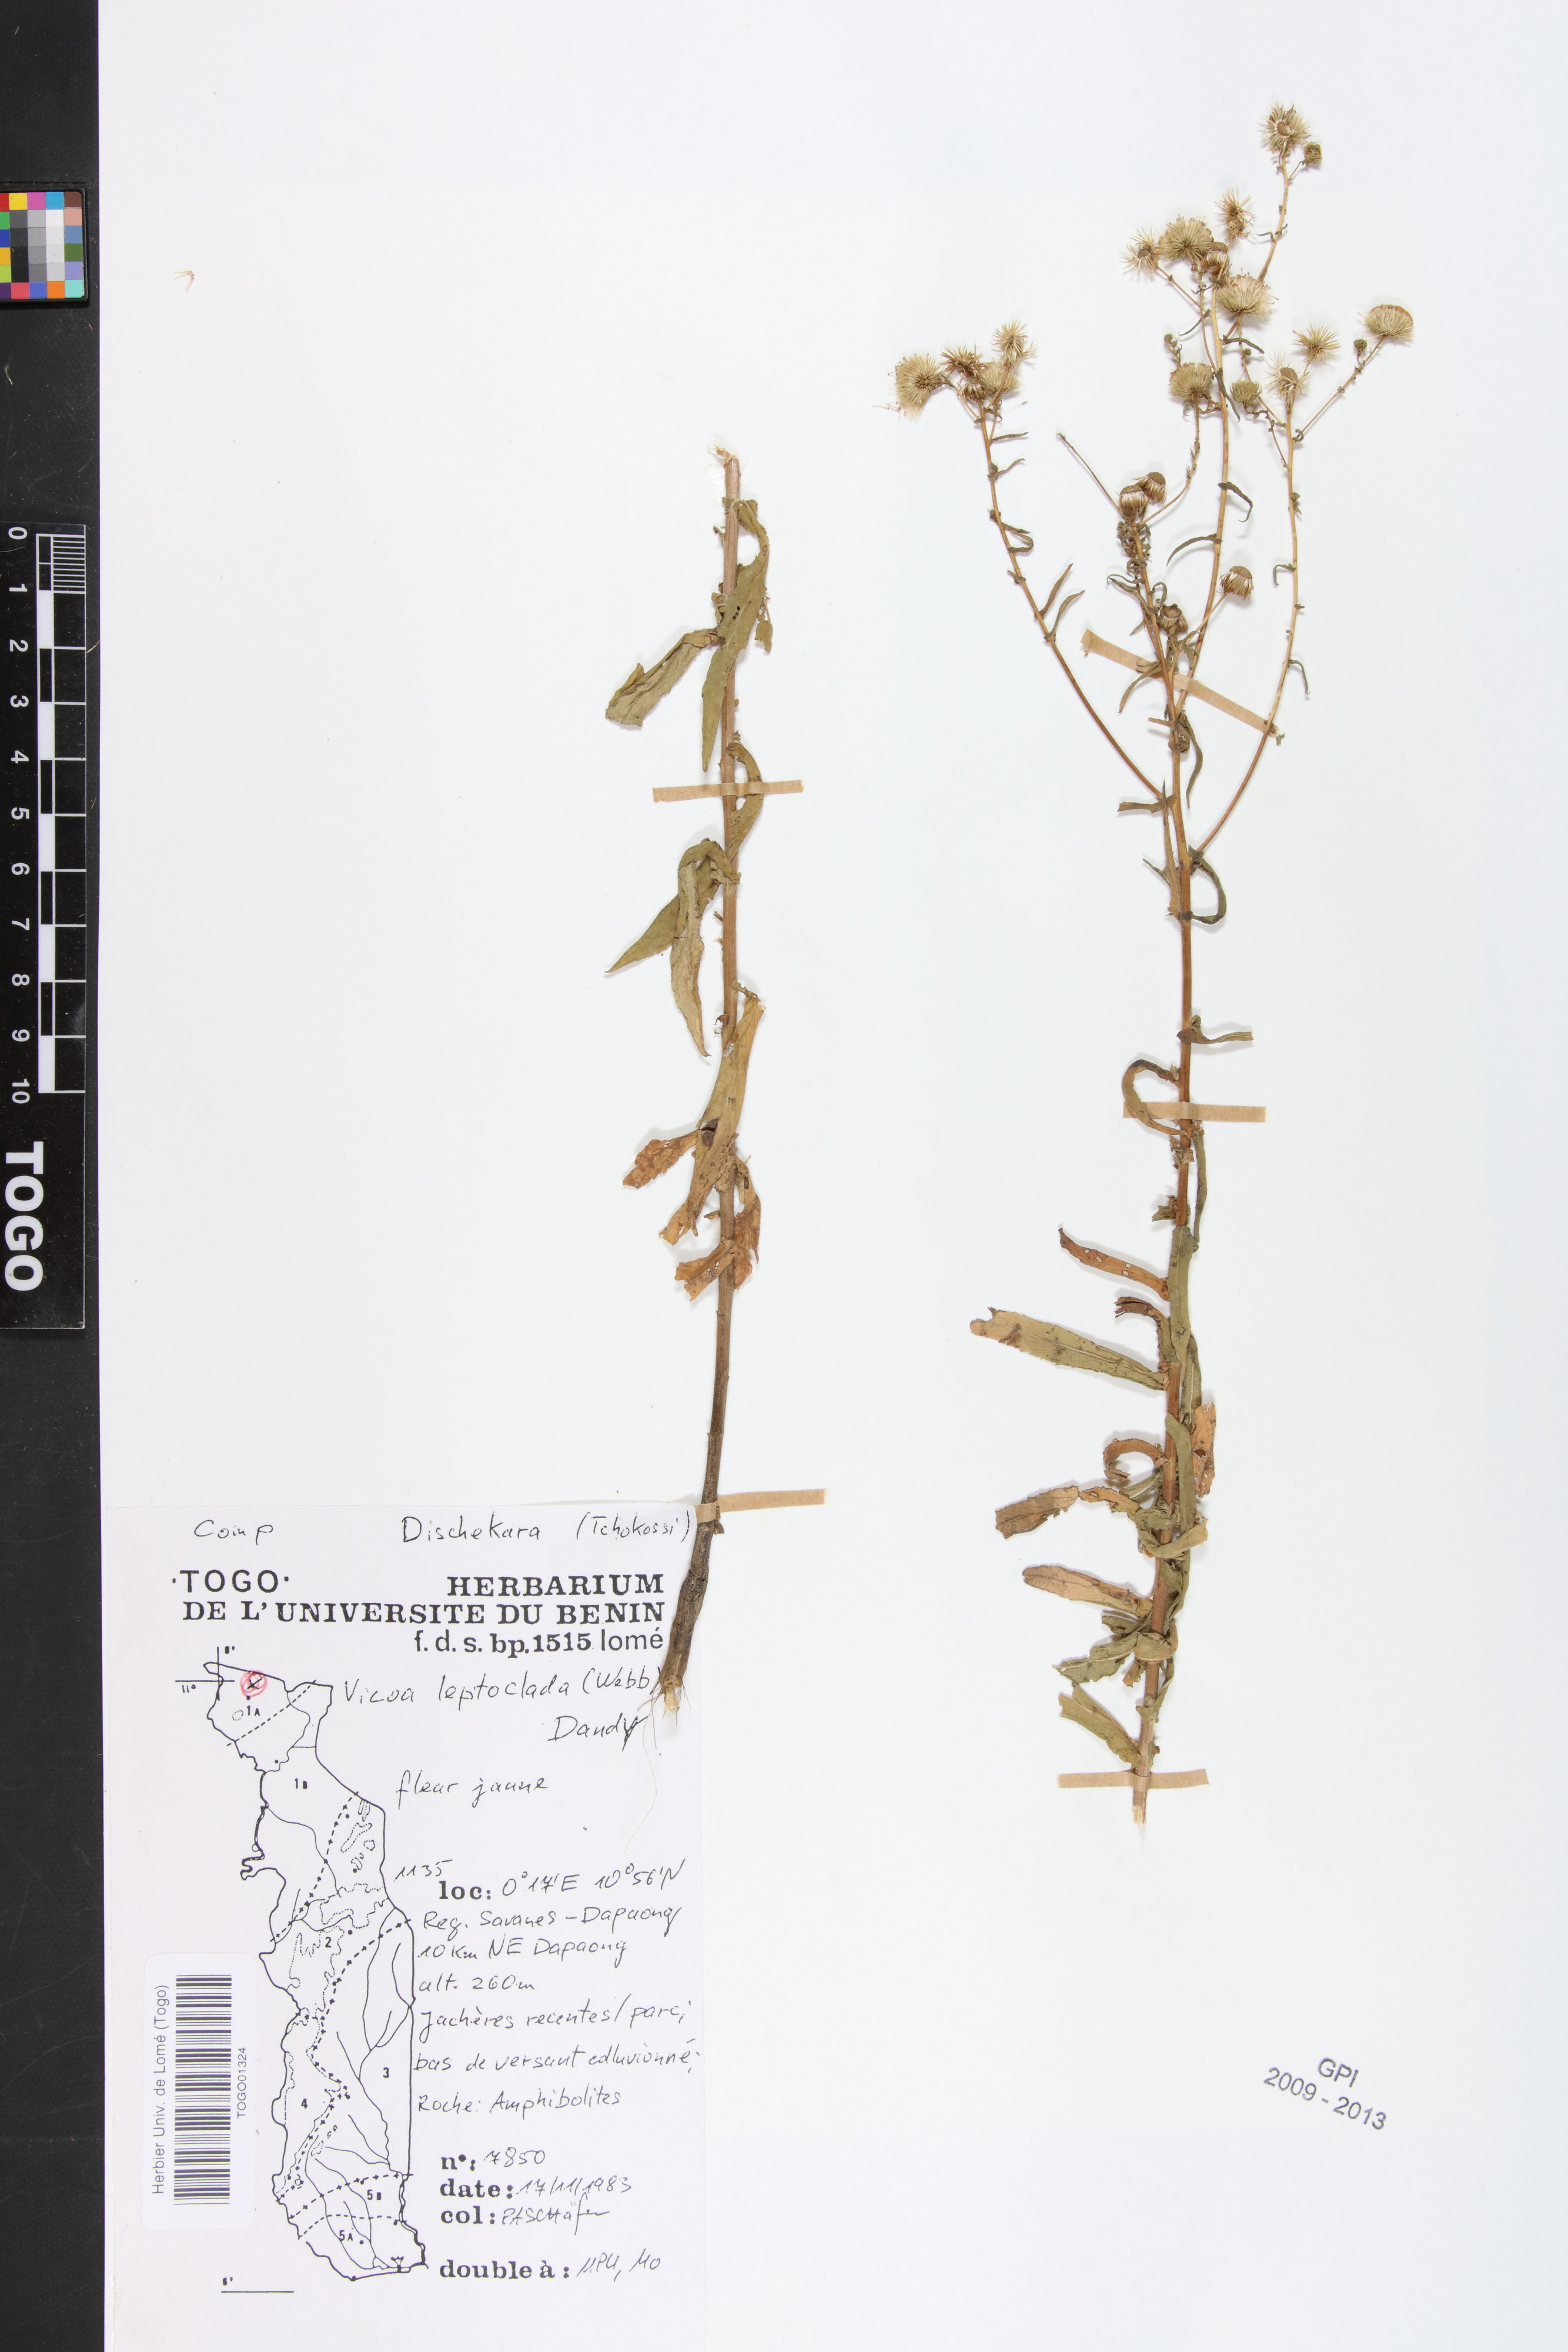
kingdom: Plantae
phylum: Tracheophyta
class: Magnoliopsida
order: Asterales
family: Asteraceae
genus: Vicoa
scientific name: Vicoa indica
